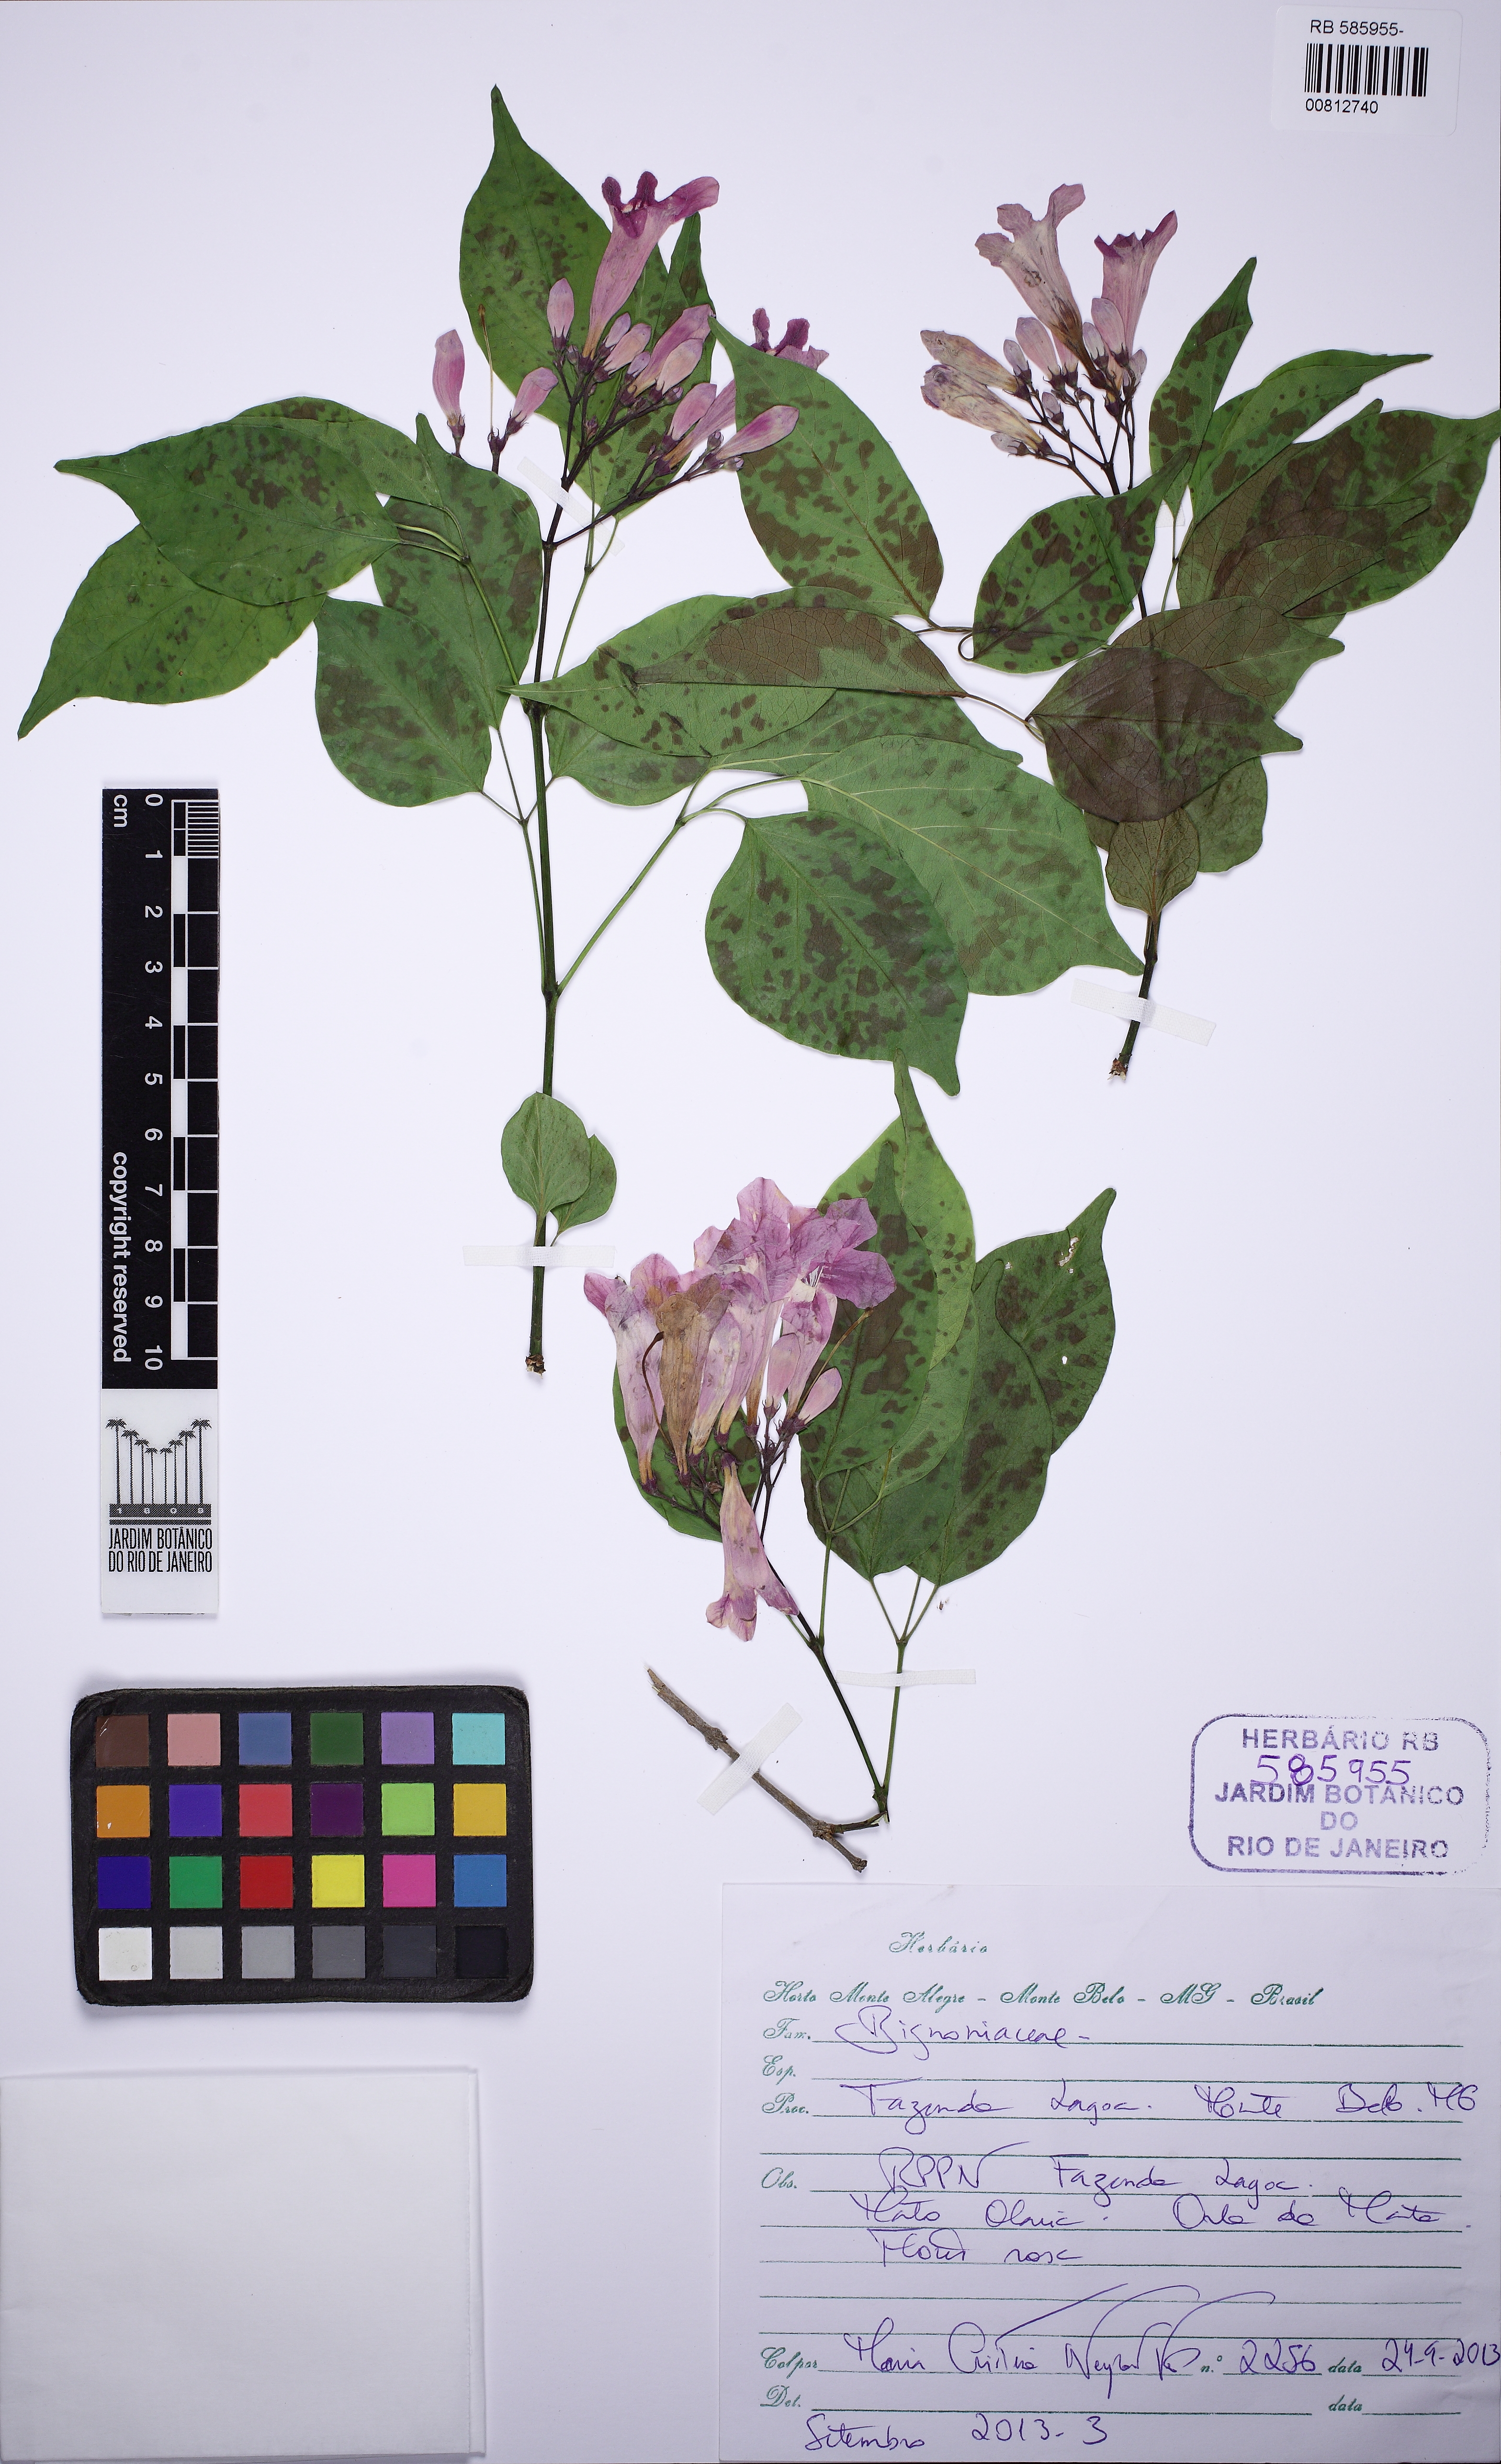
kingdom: Plantae
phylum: Tracheophyta
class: Magnoliopsida
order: Lamiales
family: Bignoniaceae
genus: Cuspidaria
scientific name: Cuspidaria convoluta
